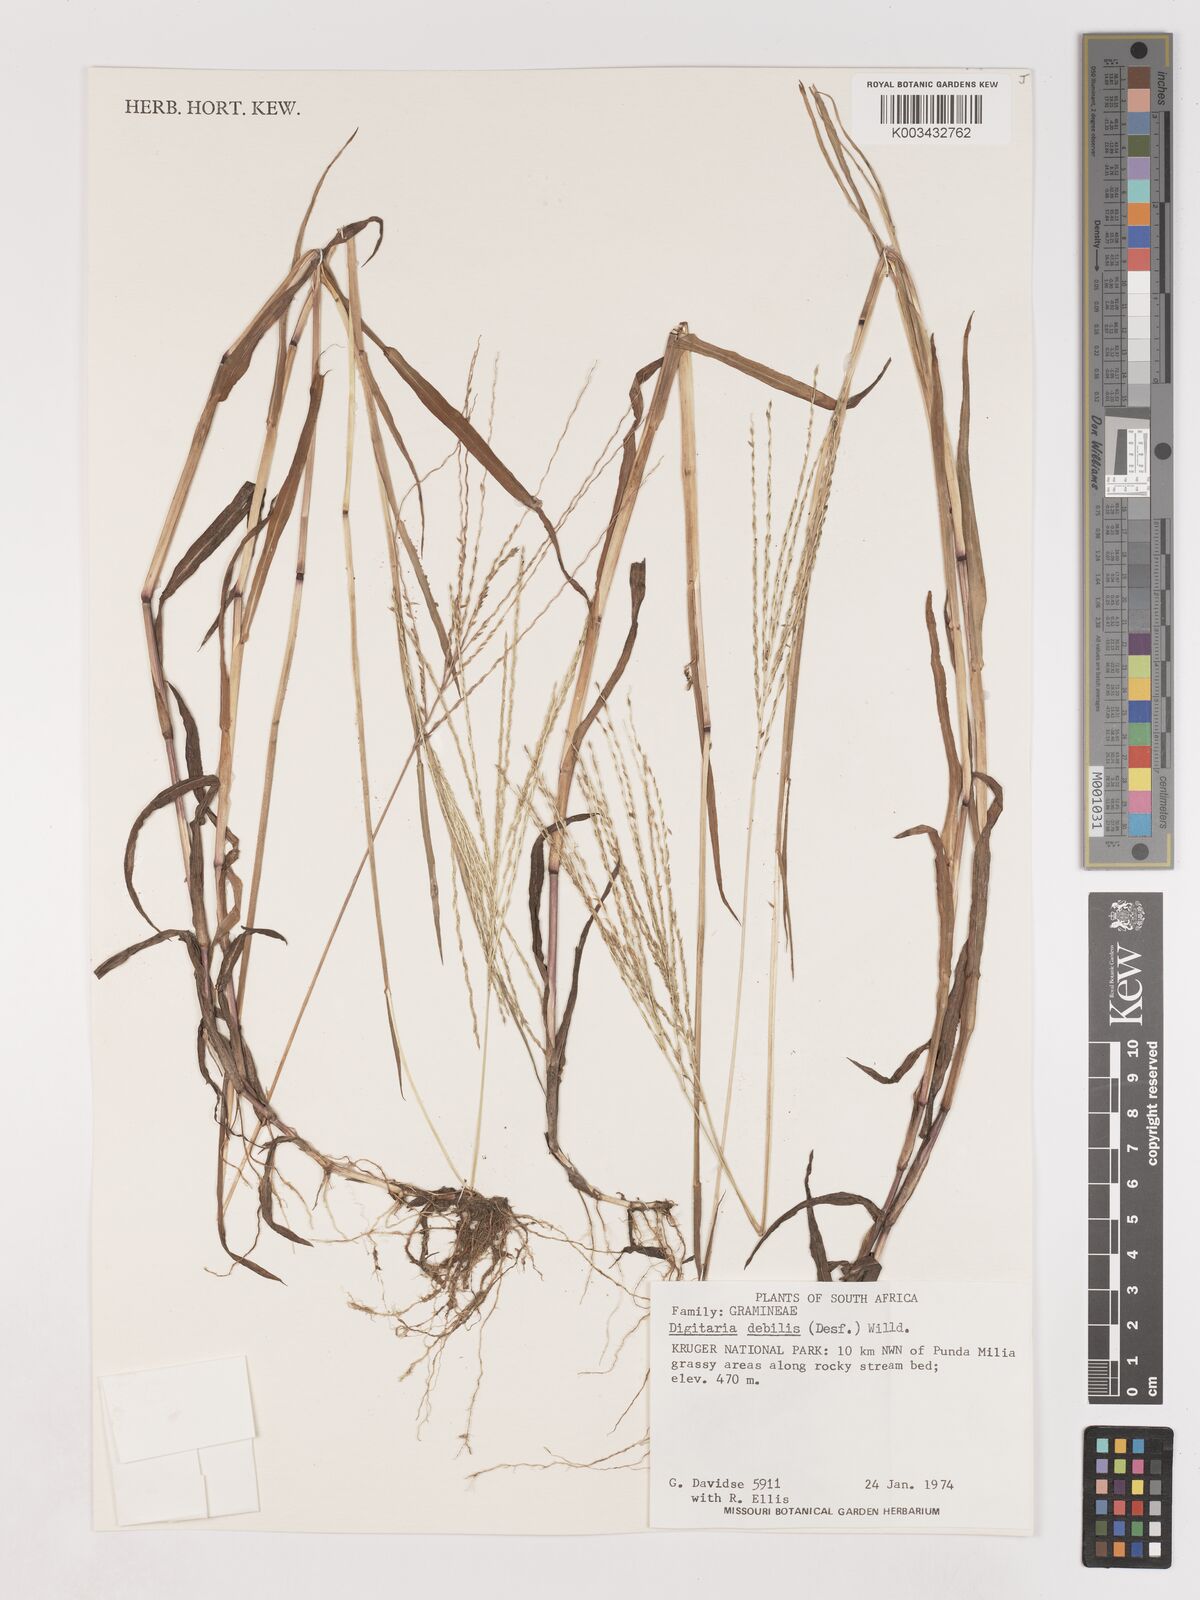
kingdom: Plantae
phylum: Tracheophyta
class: Liliopsida
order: Poales
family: Poaceae
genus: Digitaria
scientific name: Digitaria debilis
